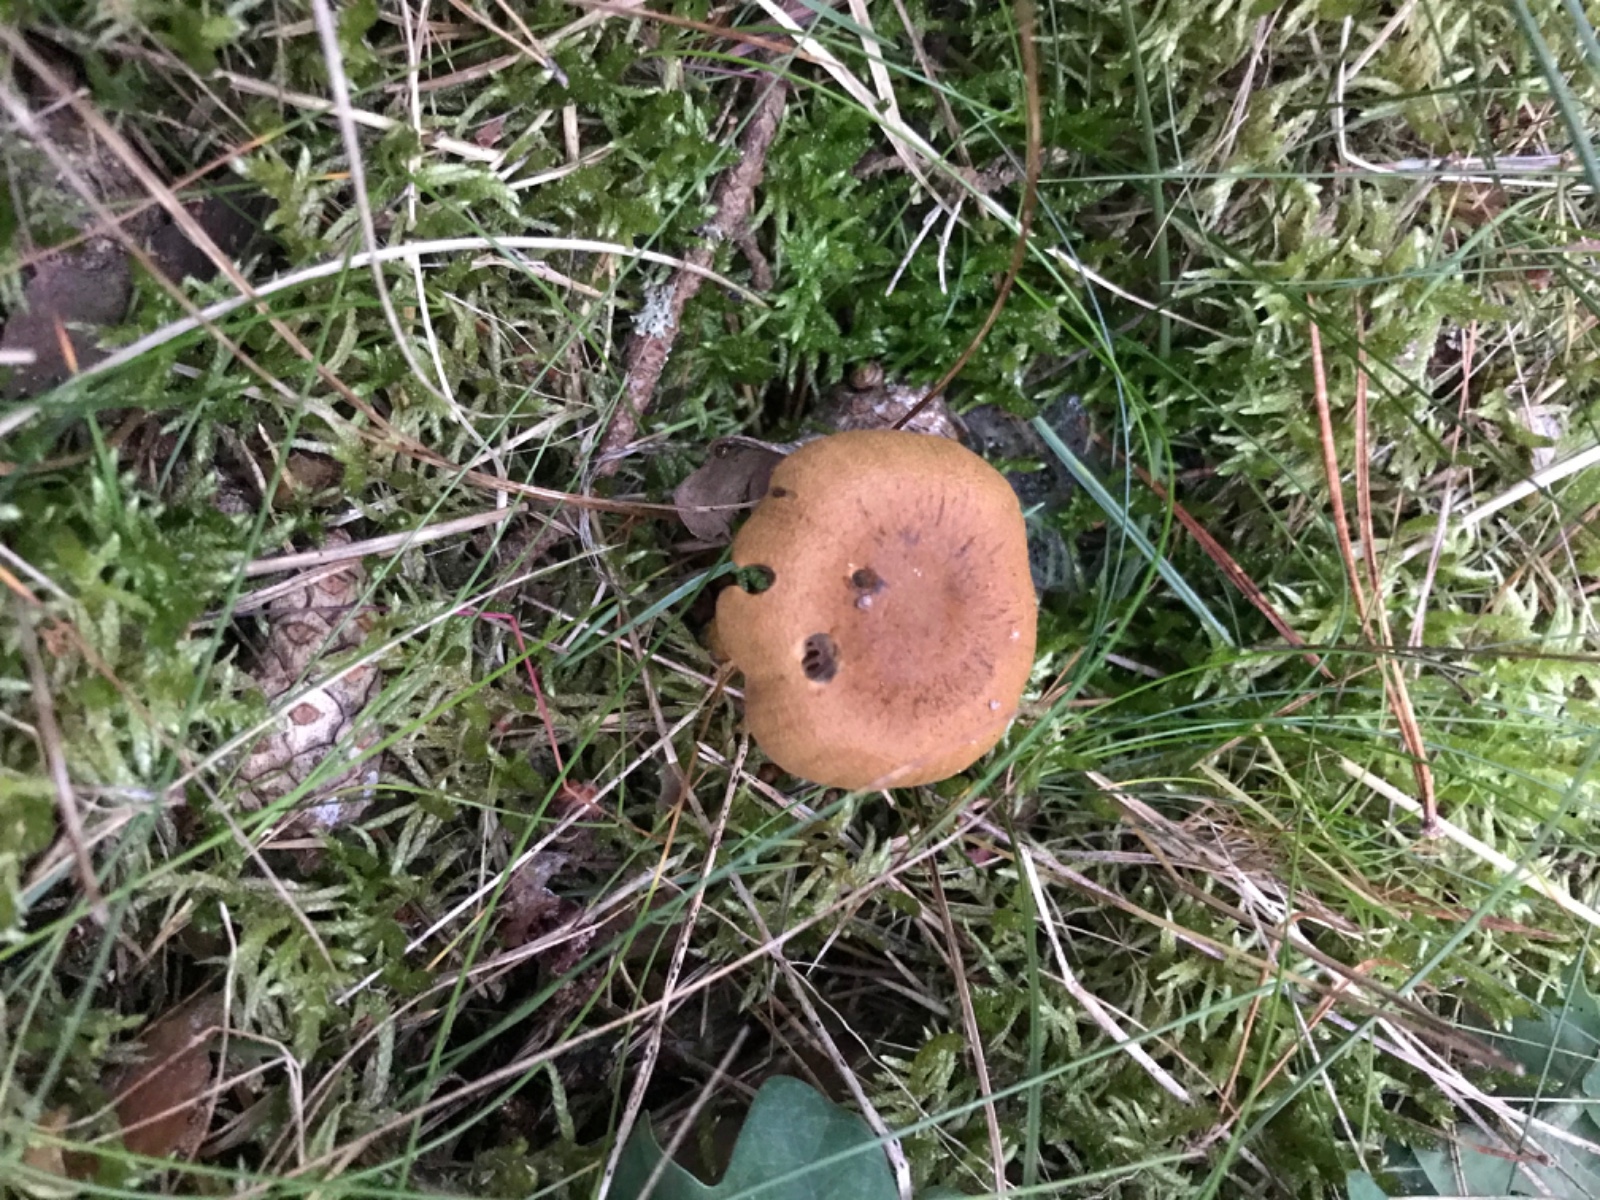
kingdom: Fungi
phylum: Basidiomycota
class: Agaricomycetes
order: Agaricales
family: Cortinariaceae
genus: Cortinarius
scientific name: Cortinarius
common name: cinnoberbladet slørhat
